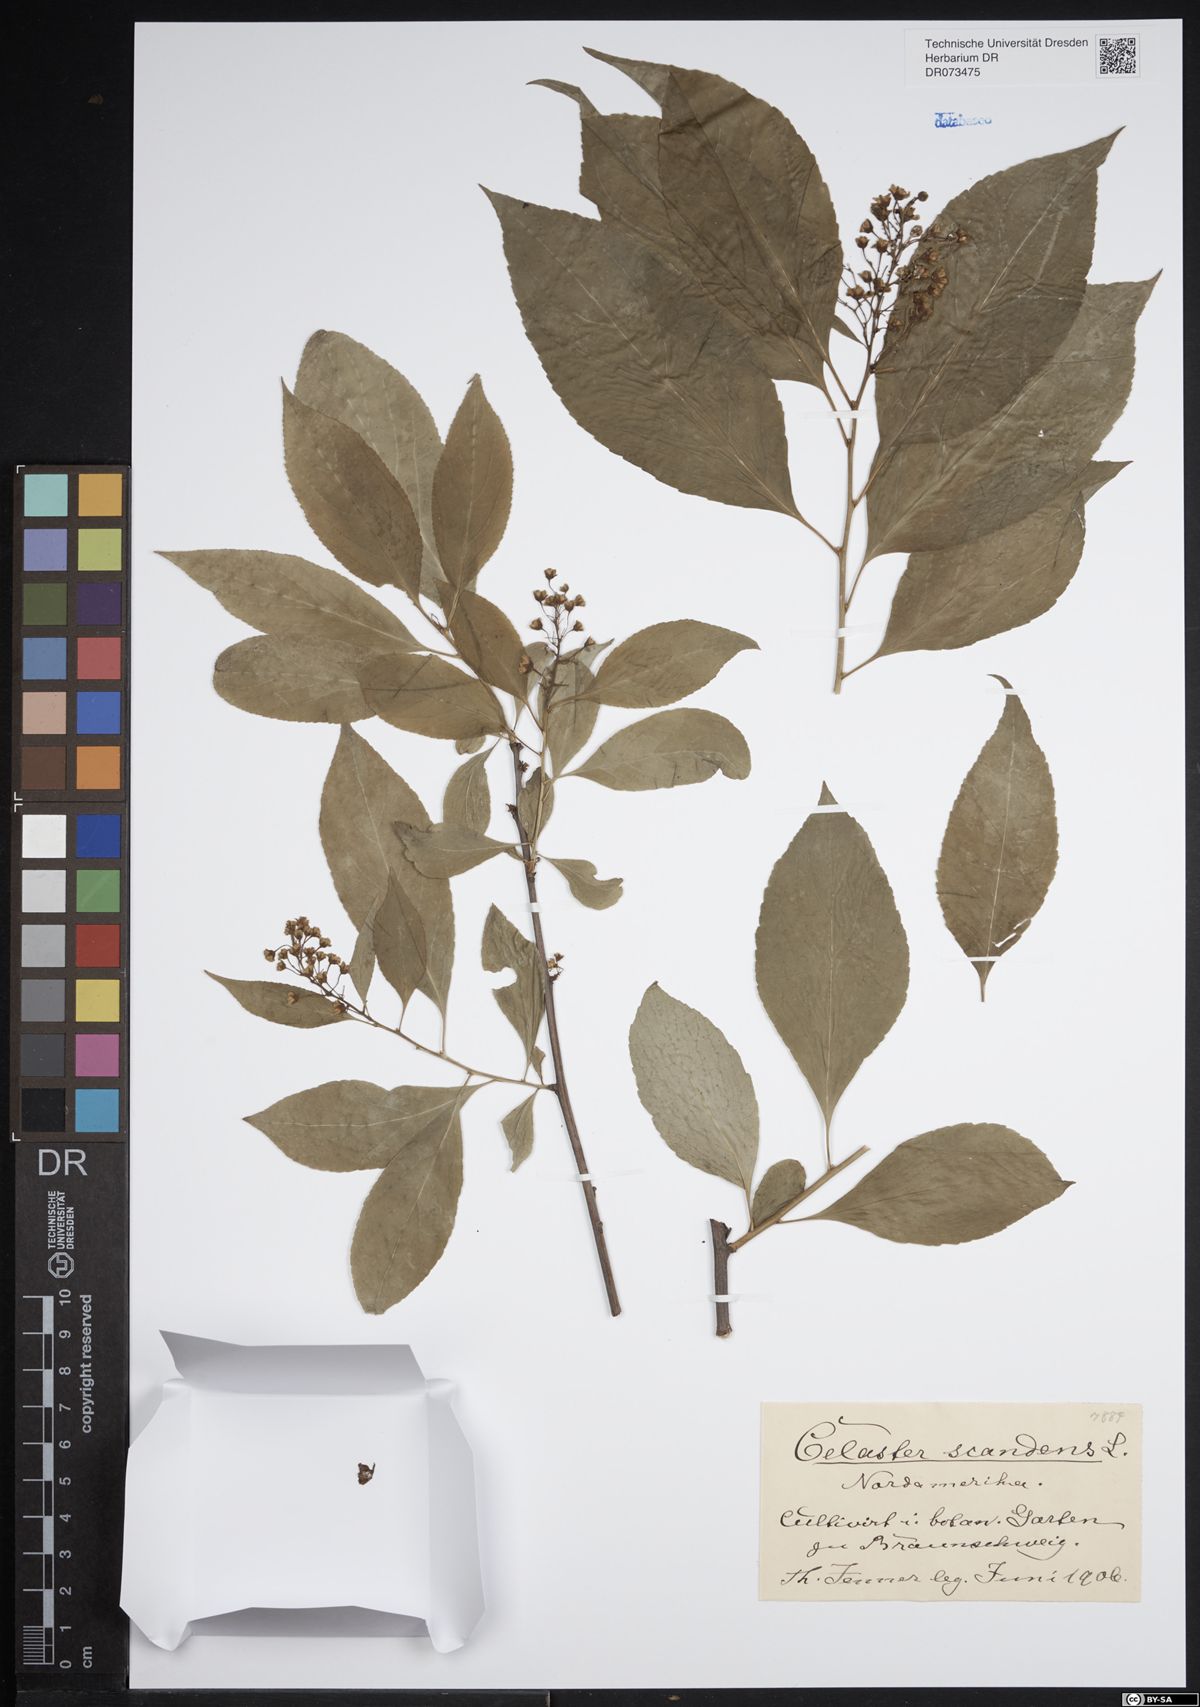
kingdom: Plantae
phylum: Tracheophyta
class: Magnoliopsida
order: Celastrales
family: Celastraceae
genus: Celastrus
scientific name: Celastrus scandens
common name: American bittersweet
